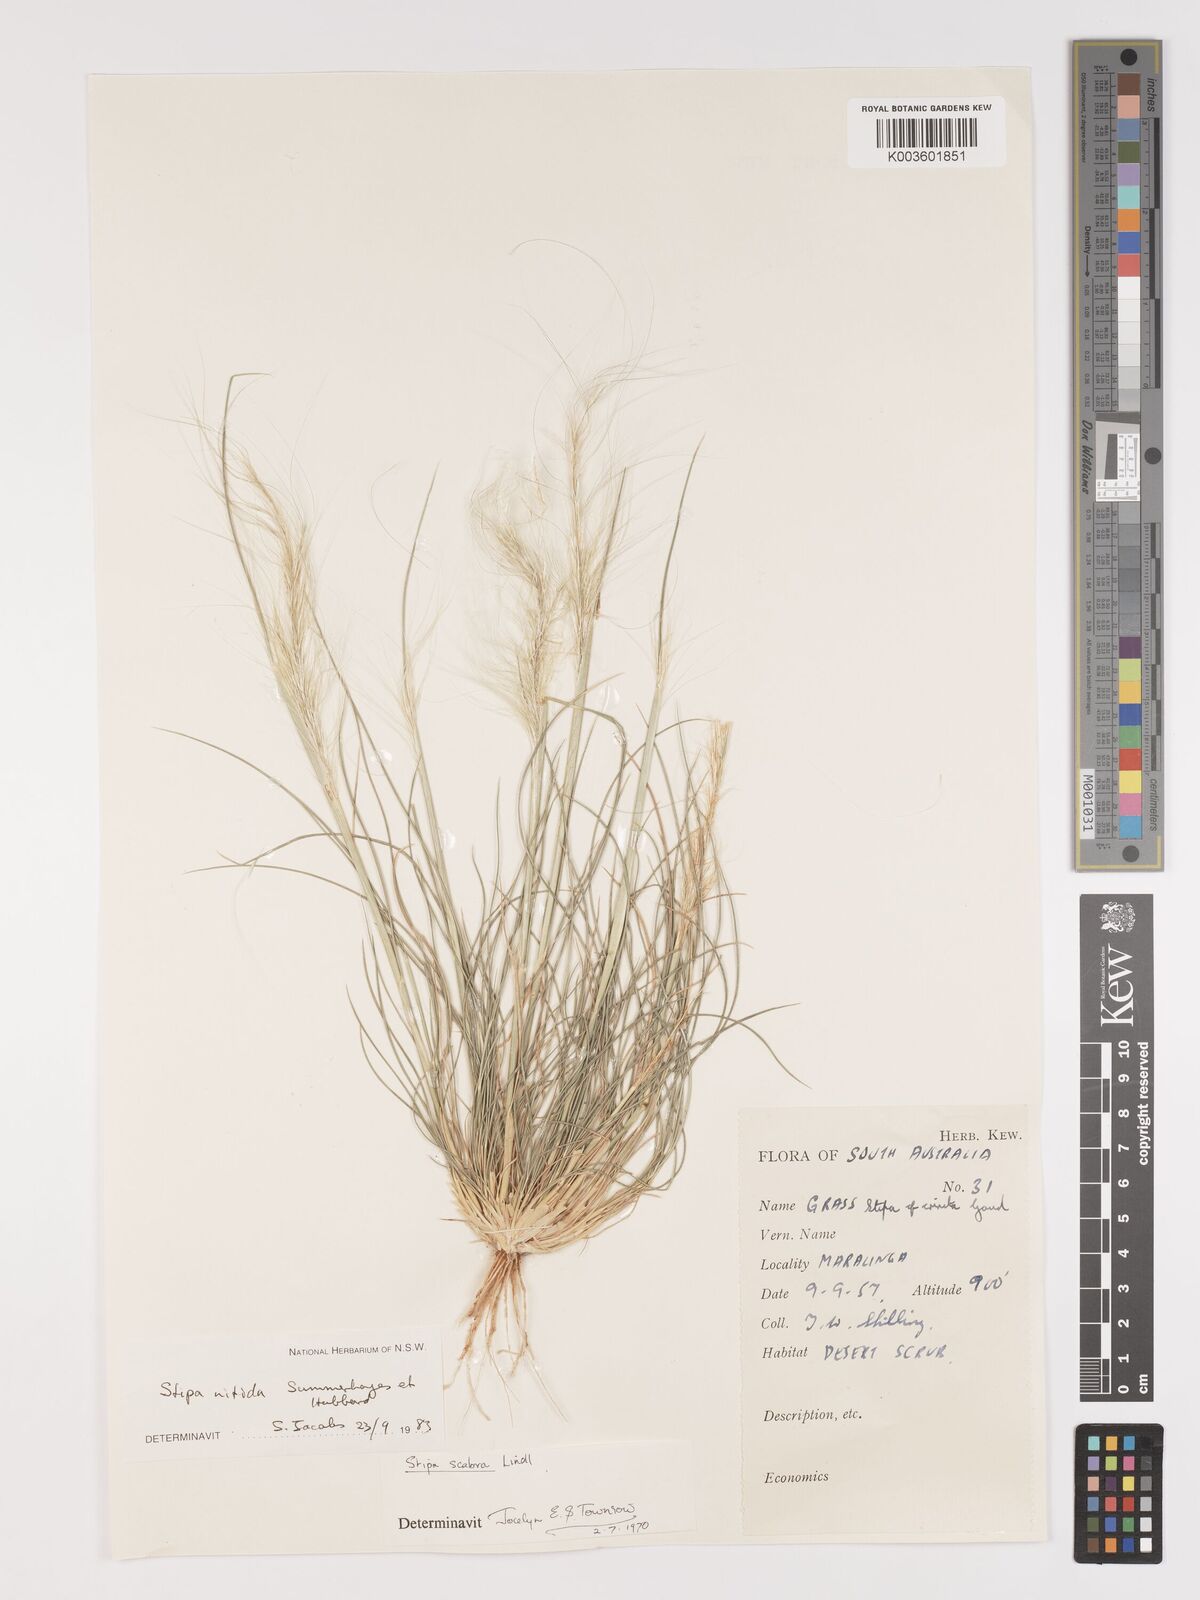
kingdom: Plantae
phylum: Tracheophyta
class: Liliopsida
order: Poales
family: Poaceae
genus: Austrostipa
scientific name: Austrostipa nitida
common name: Balcarra grass
